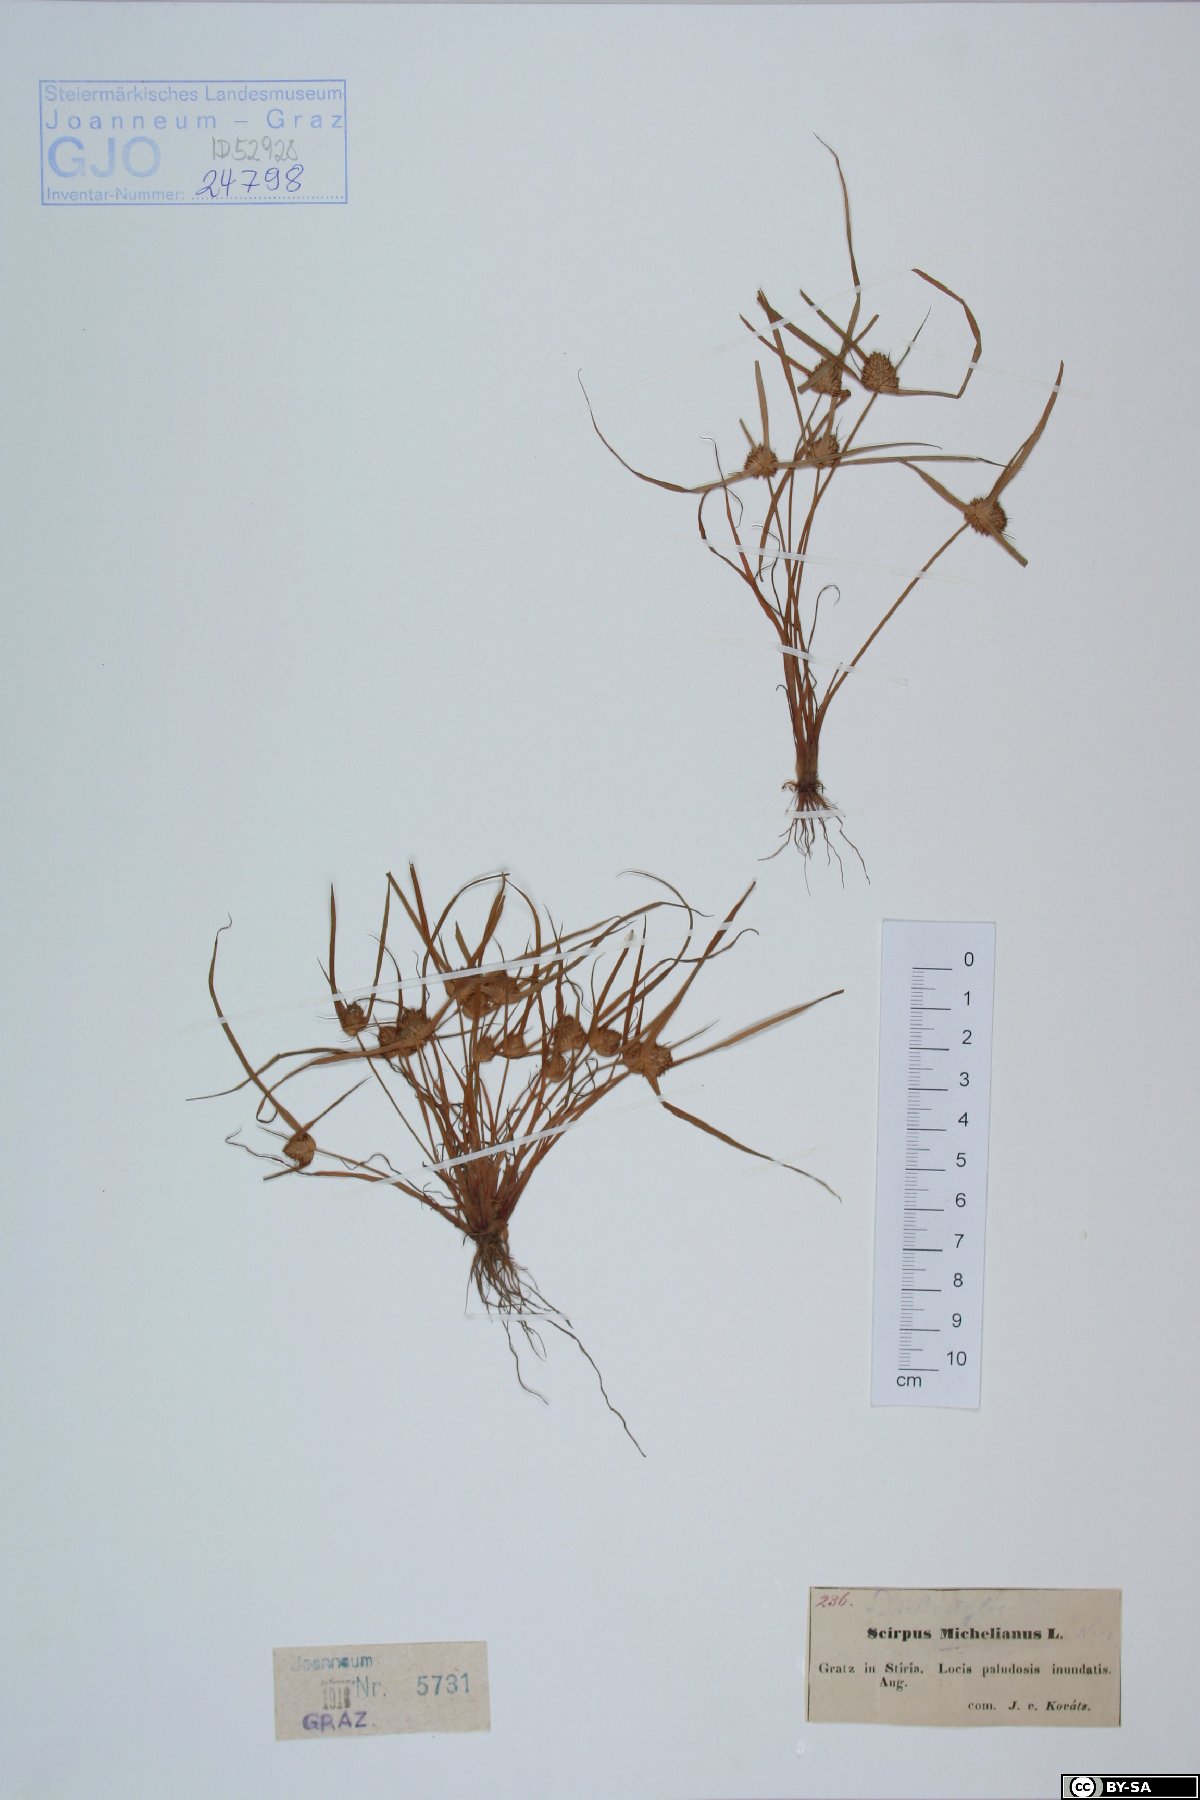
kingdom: Plantae
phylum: Tracheophyta
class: Liliopsida
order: Poales
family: Cyperaceae
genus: Cyperus
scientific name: Cyperus michelianus
